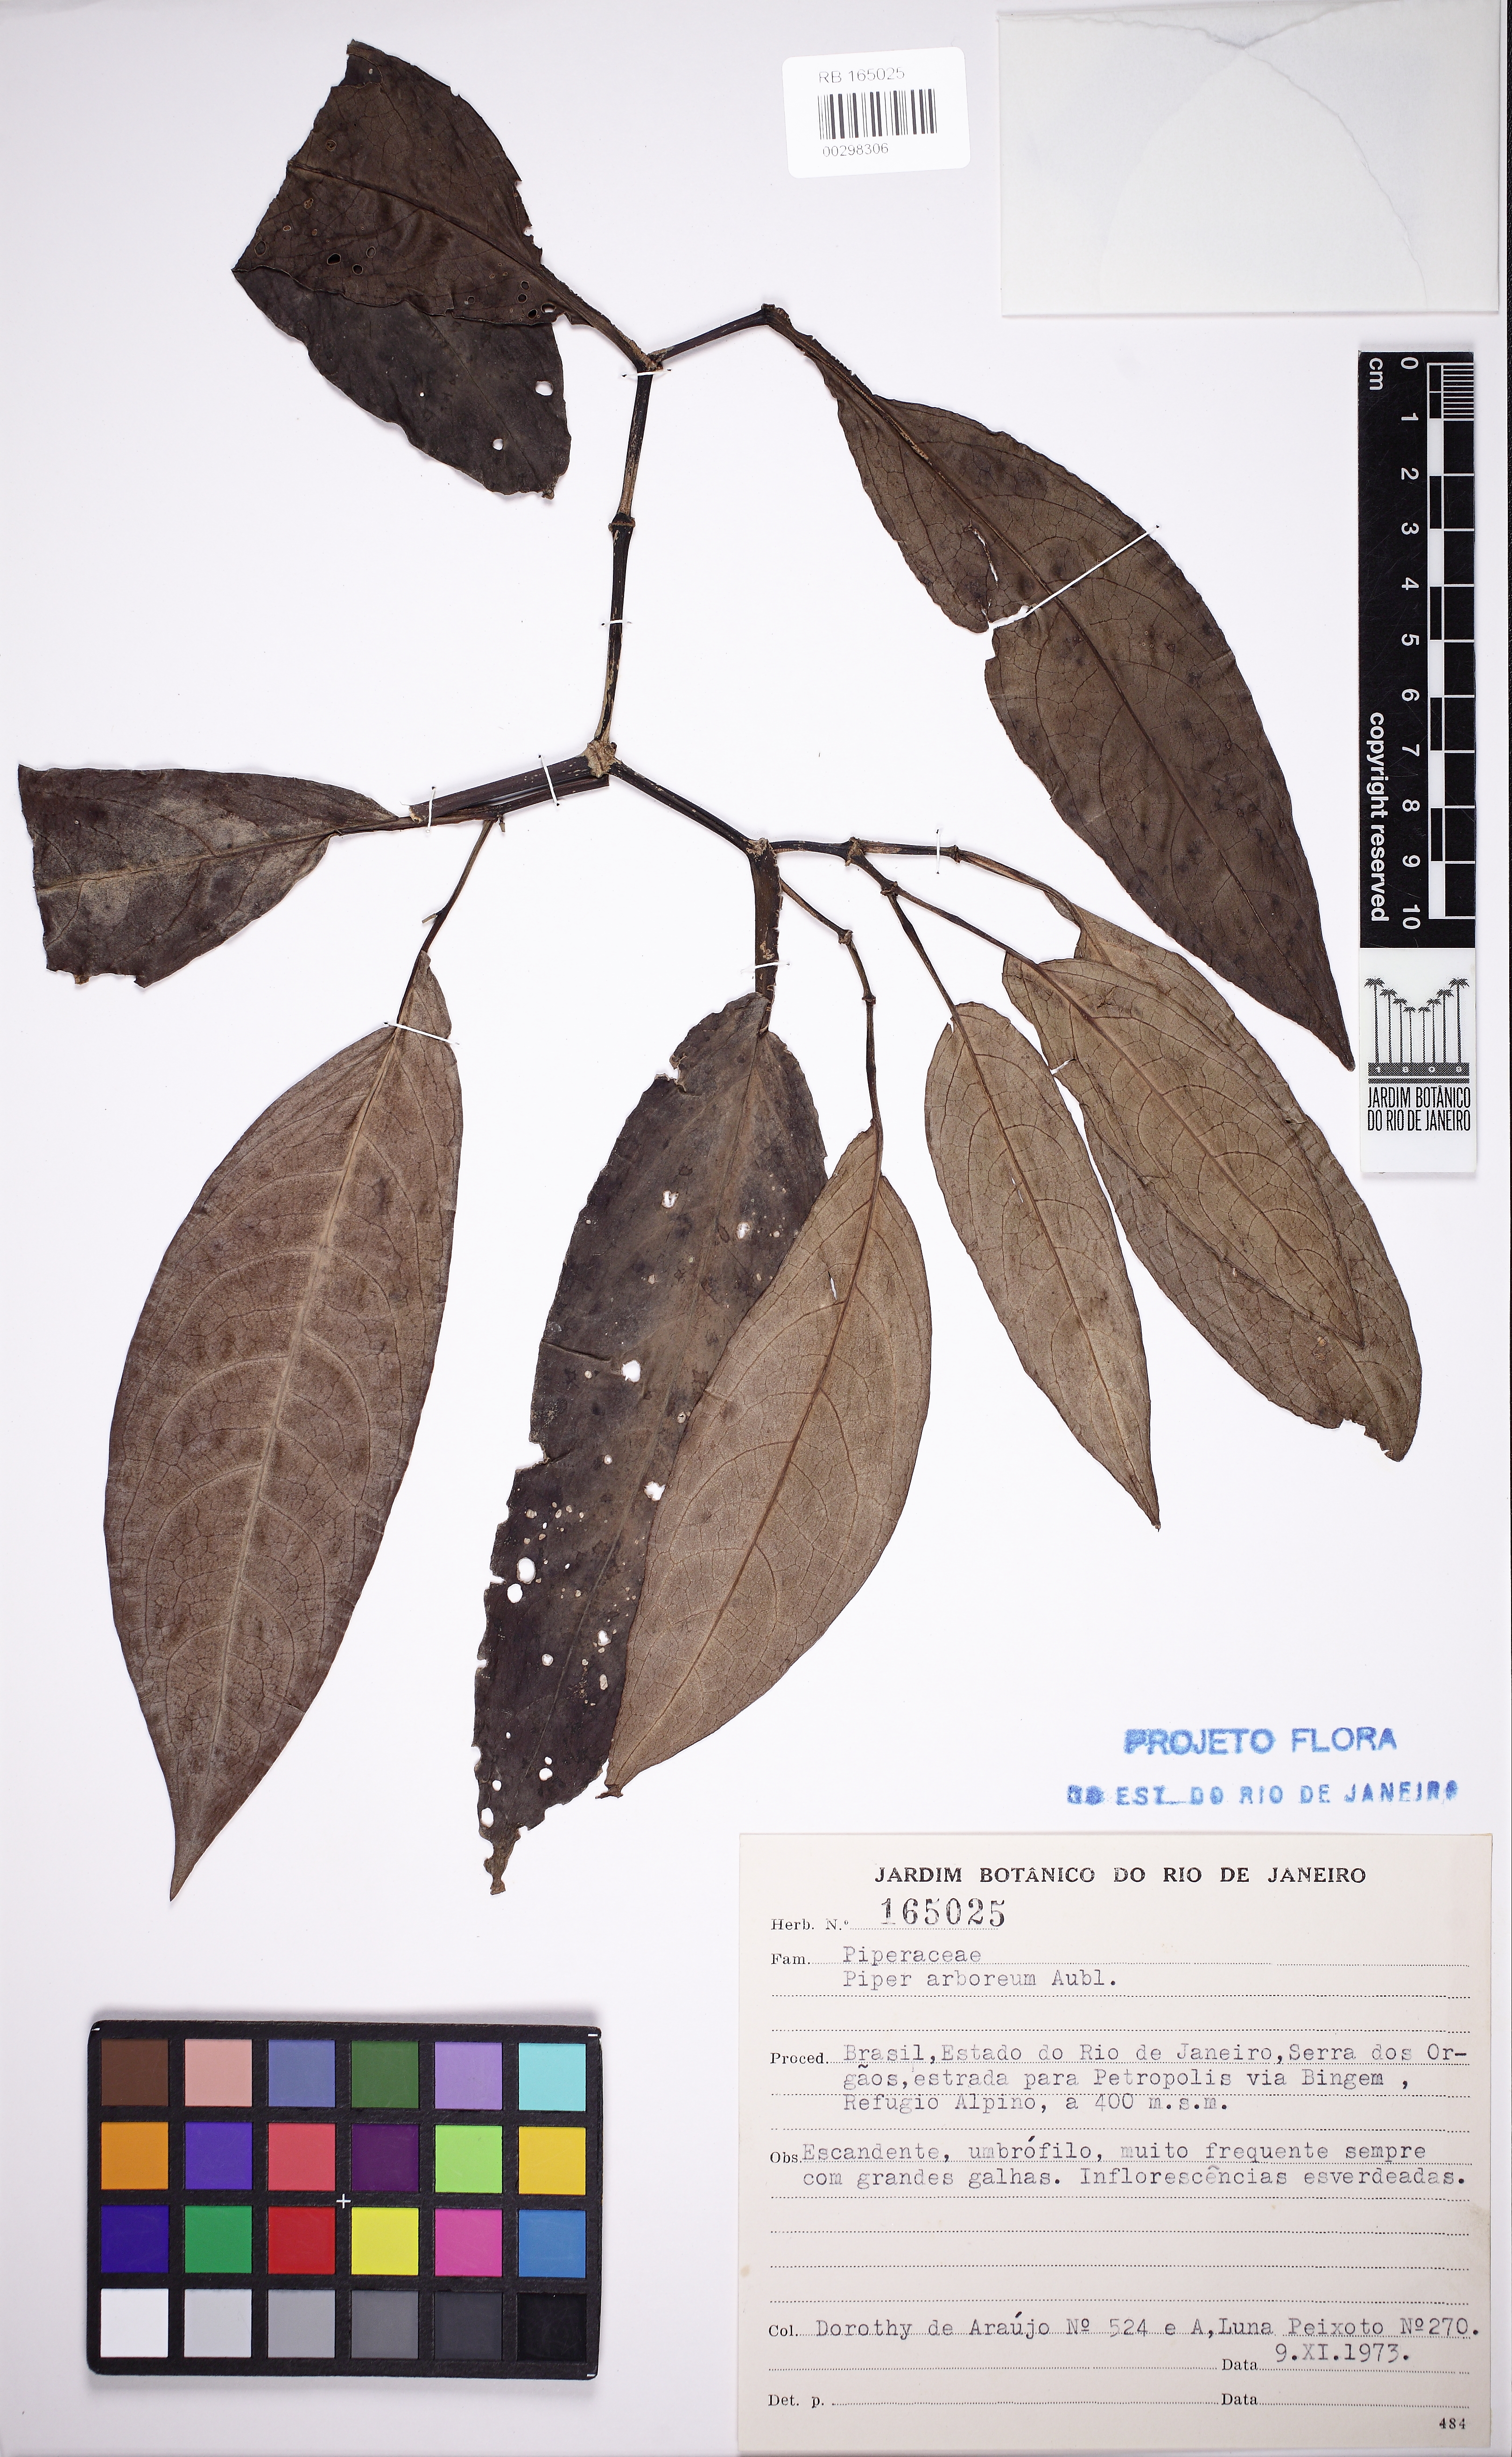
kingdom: Plantae
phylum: Tracheophyta
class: Magnoliopsida
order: Piperales
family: Piperaceae
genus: Piper
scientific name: Piper arboreum
